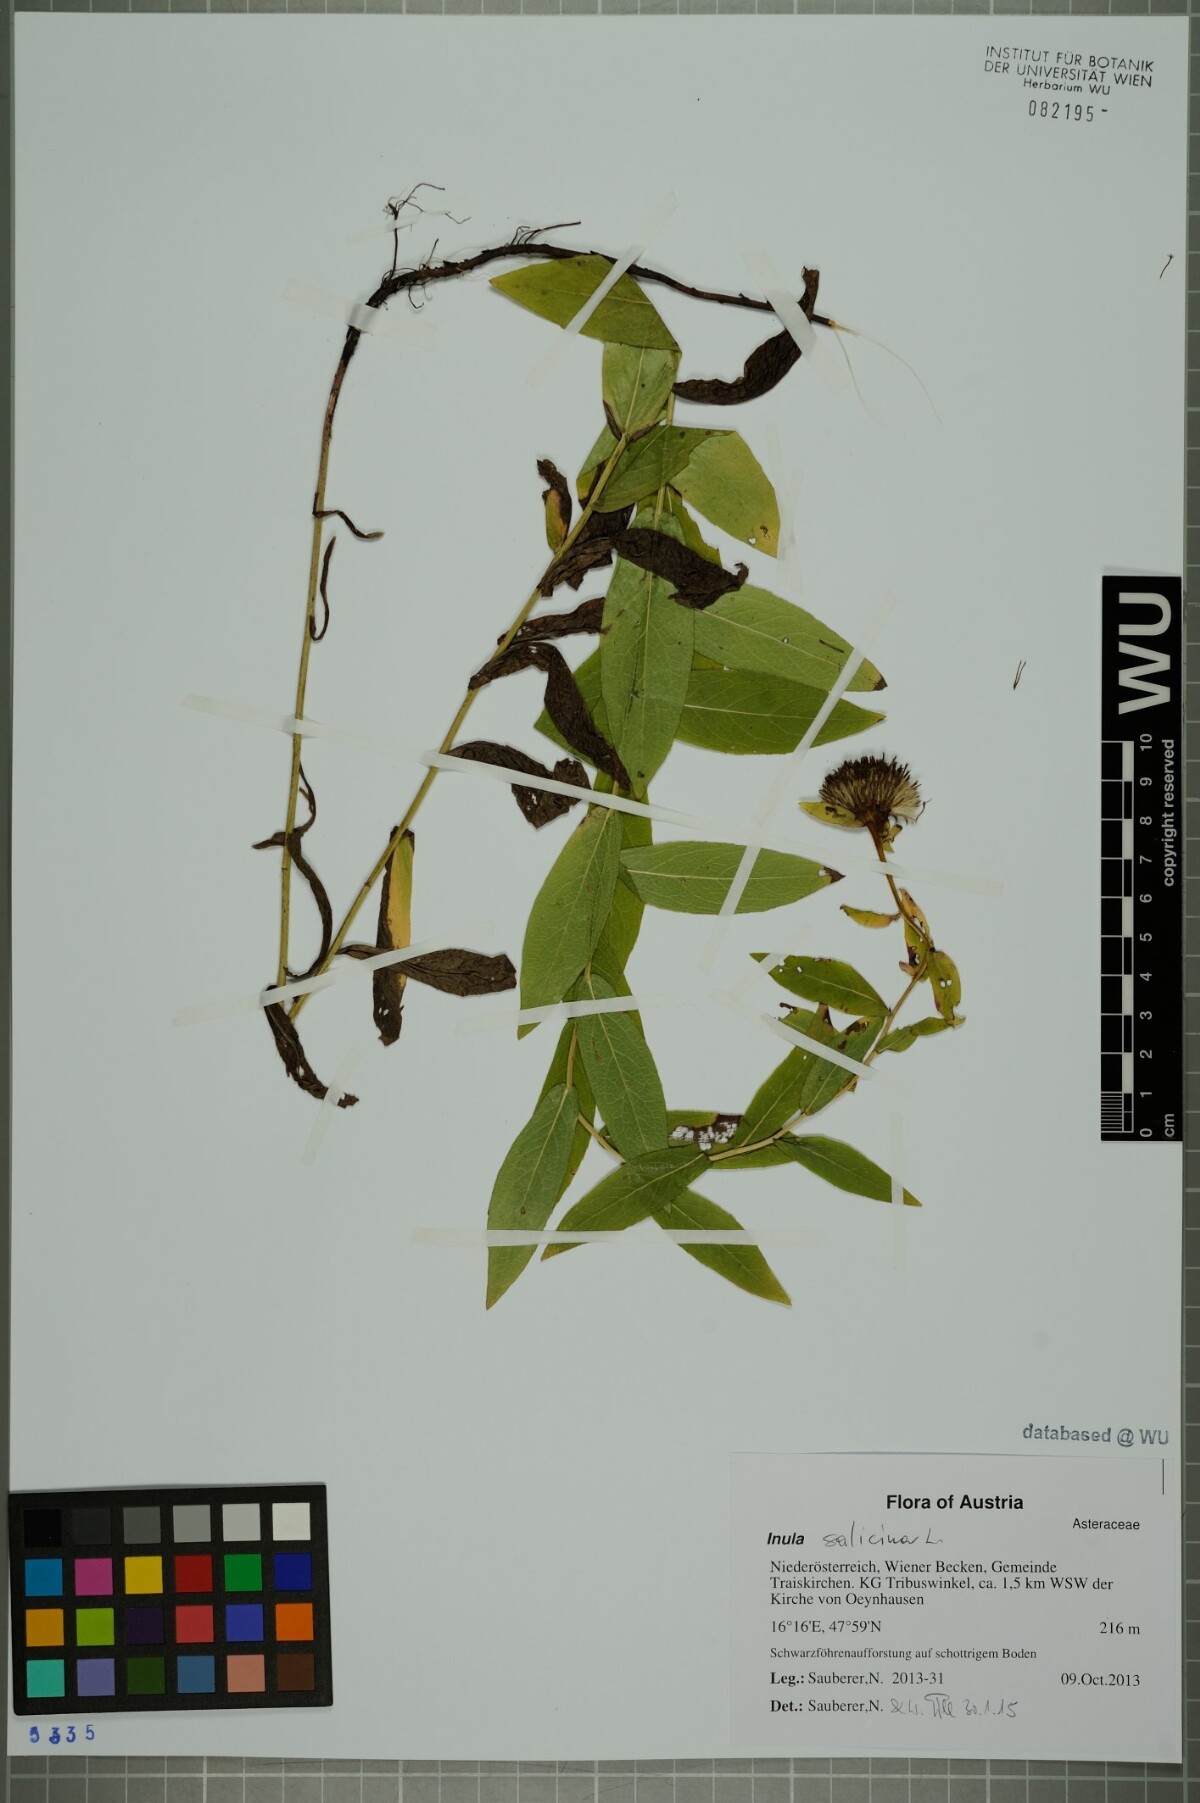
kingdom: Plantae
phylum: Tracheophyta
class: Magnoliopsida
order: Asterales
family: Asteraceae
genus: Pentanema
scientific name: Pentanema salicinum
